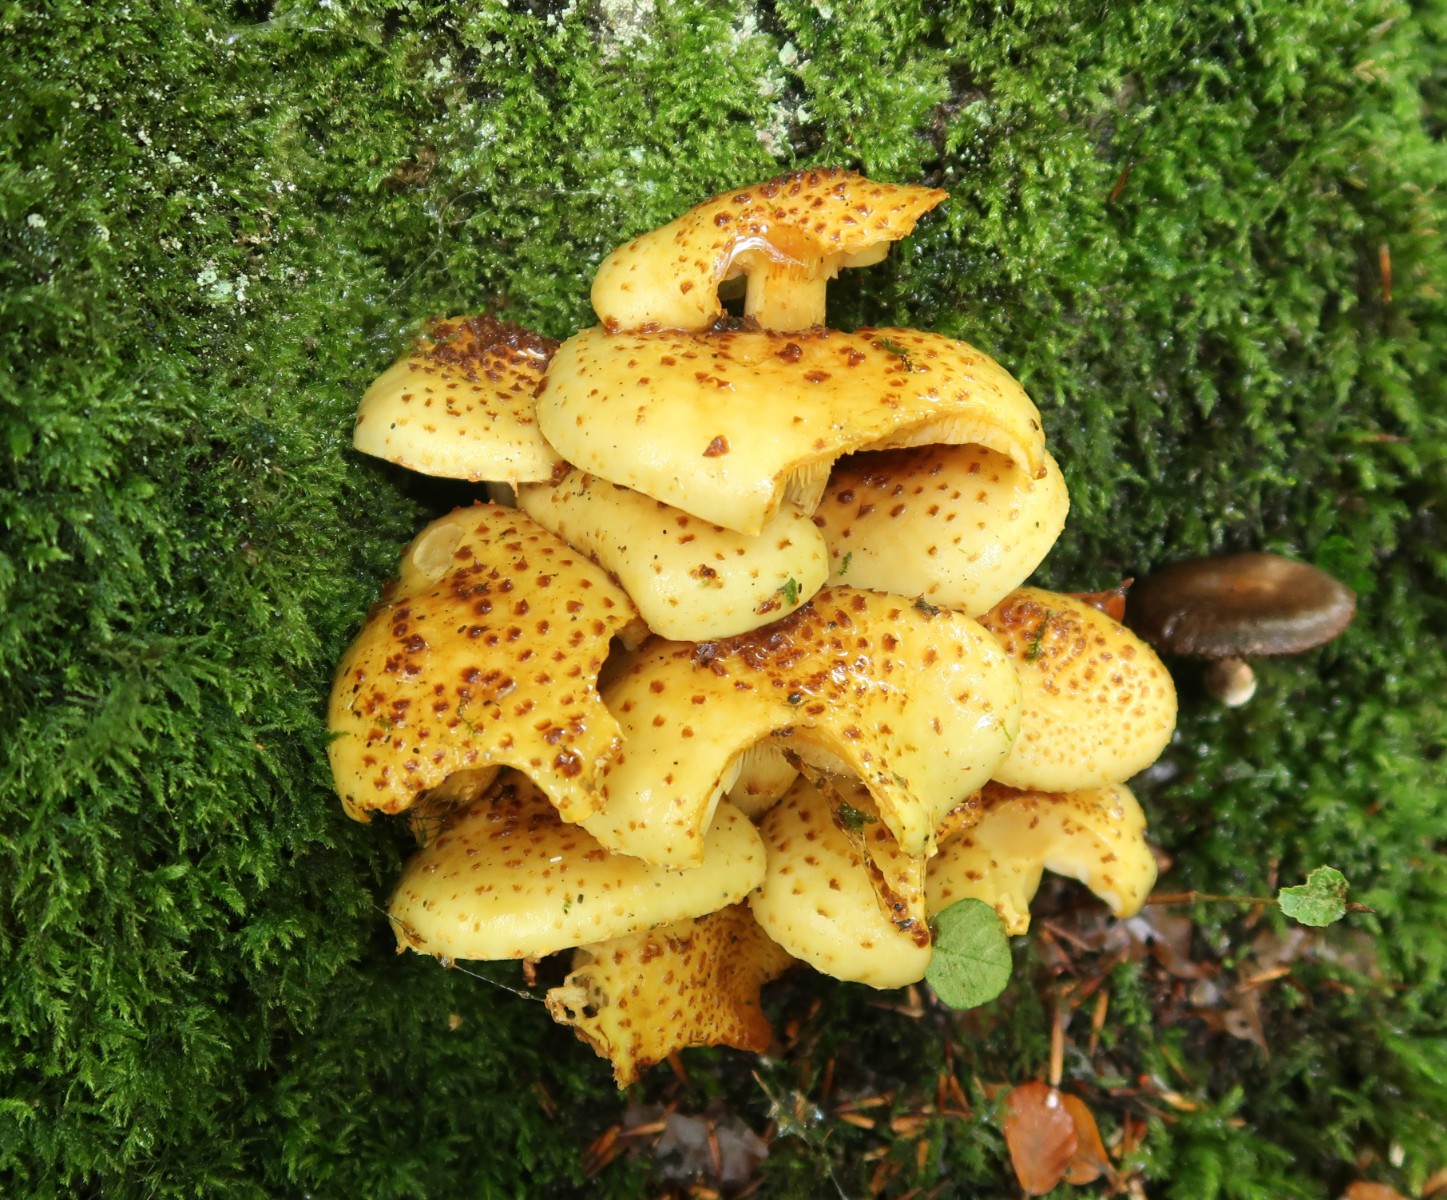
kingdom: Fungi
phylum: Basidiomycota
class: Agaricomycetes
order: Agaricales
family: Strophariaceae
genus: Pholiota
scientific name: Pholiota jahnii
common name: slimet skælhat
